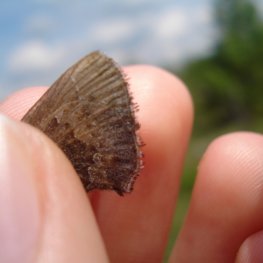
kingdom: Animalia
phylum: Arthropoda
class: Insecta
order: Lepidoptera
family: Lycaenidae
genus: Callophrys
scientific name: Callophrys polios
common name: Hoary Elfin
